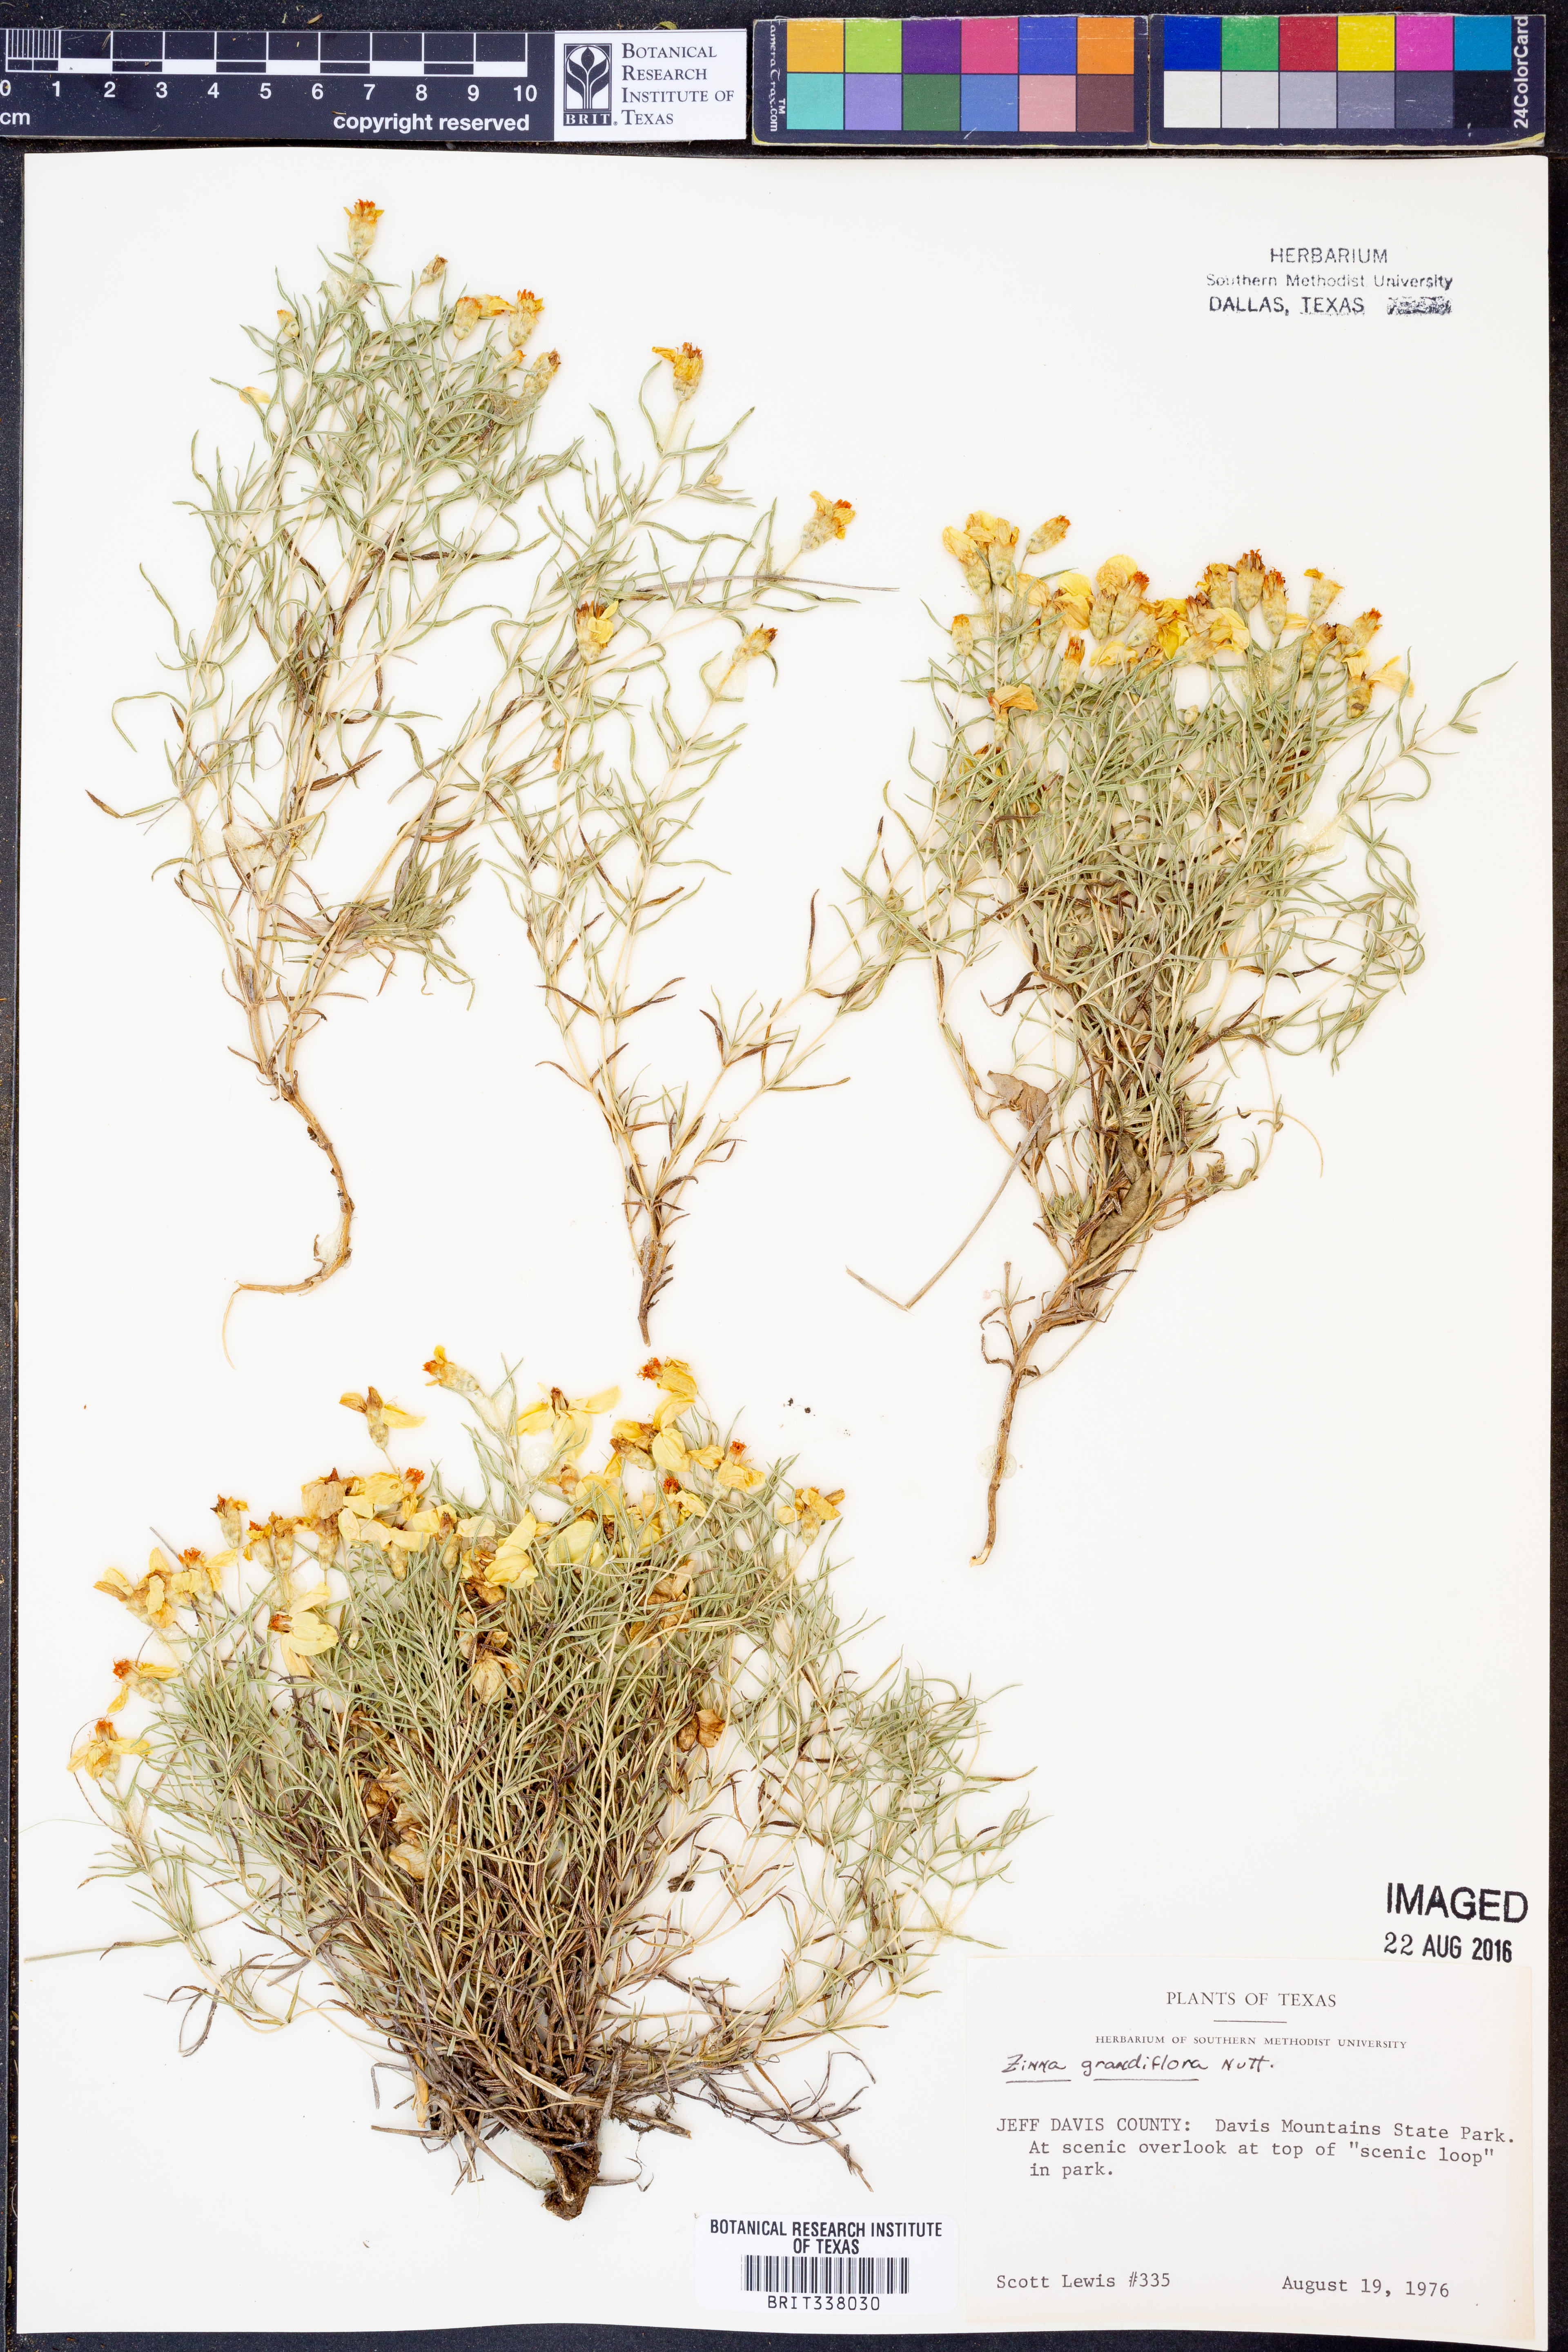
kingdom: Plantae
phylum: Tracheophyta
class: Magnoliopsida
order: Asterales
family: Asteraceae
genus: Zinnia
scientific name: Zinnia grandiflora
